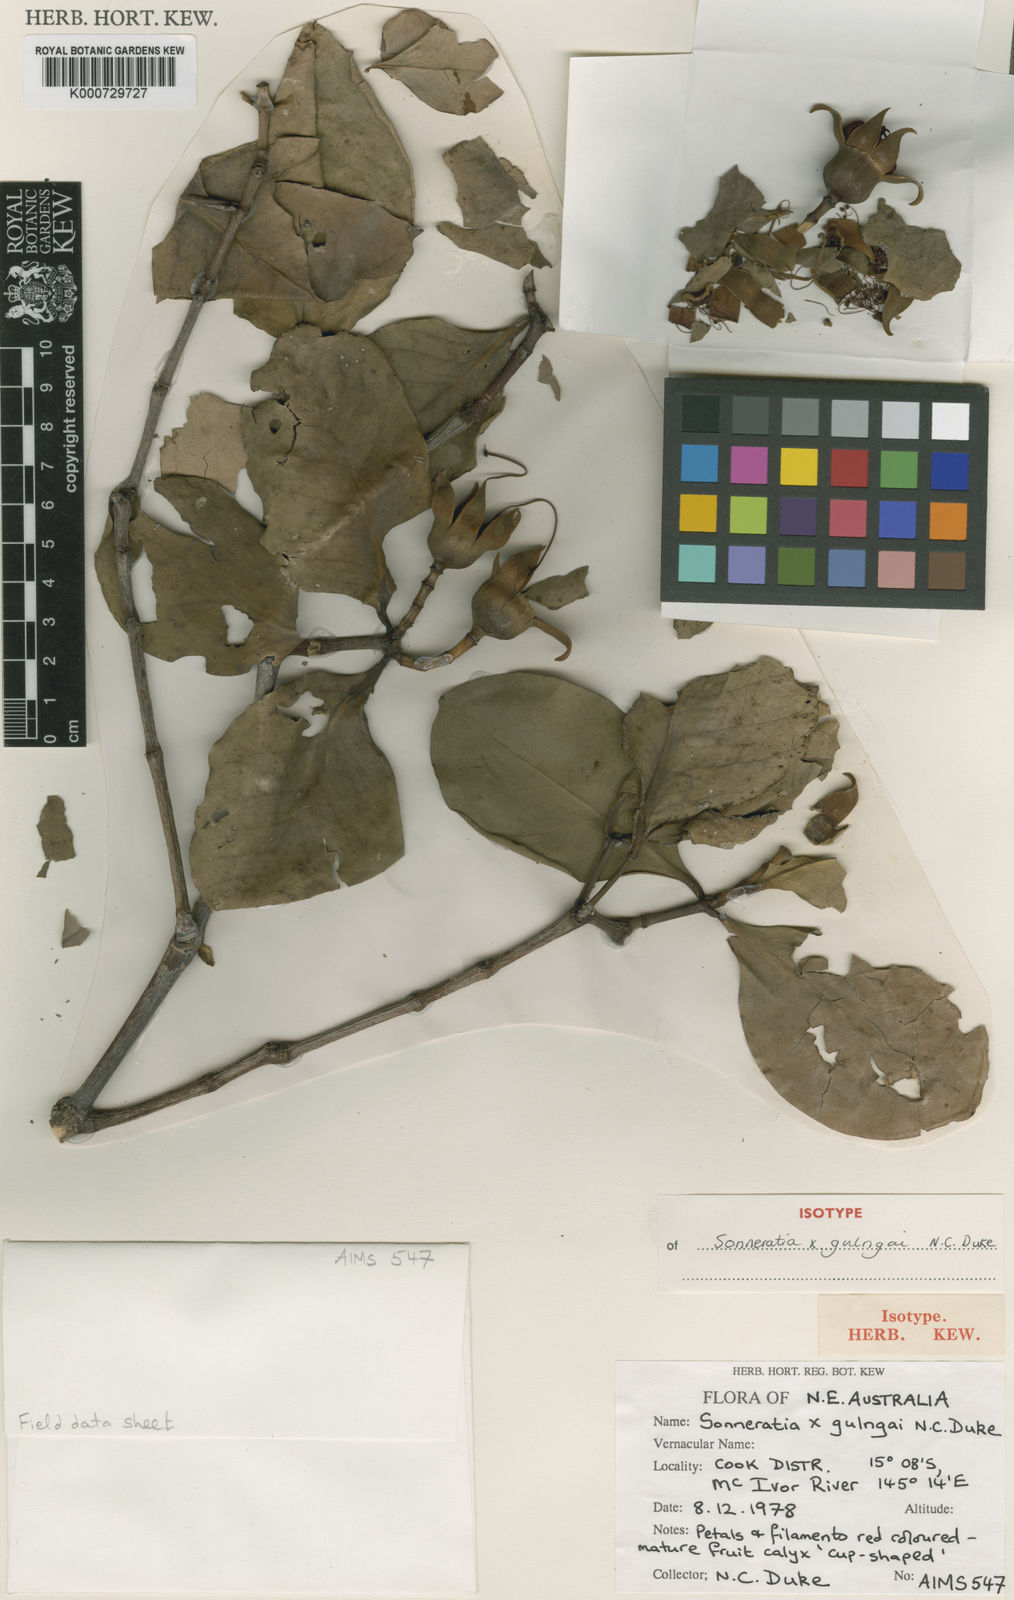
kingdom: Plantae
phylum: Tracheophyta
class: Magnoliopsida
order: Myrtales
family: Lythraceae
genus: Sonneratia
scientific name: Sonneratia gulngai
